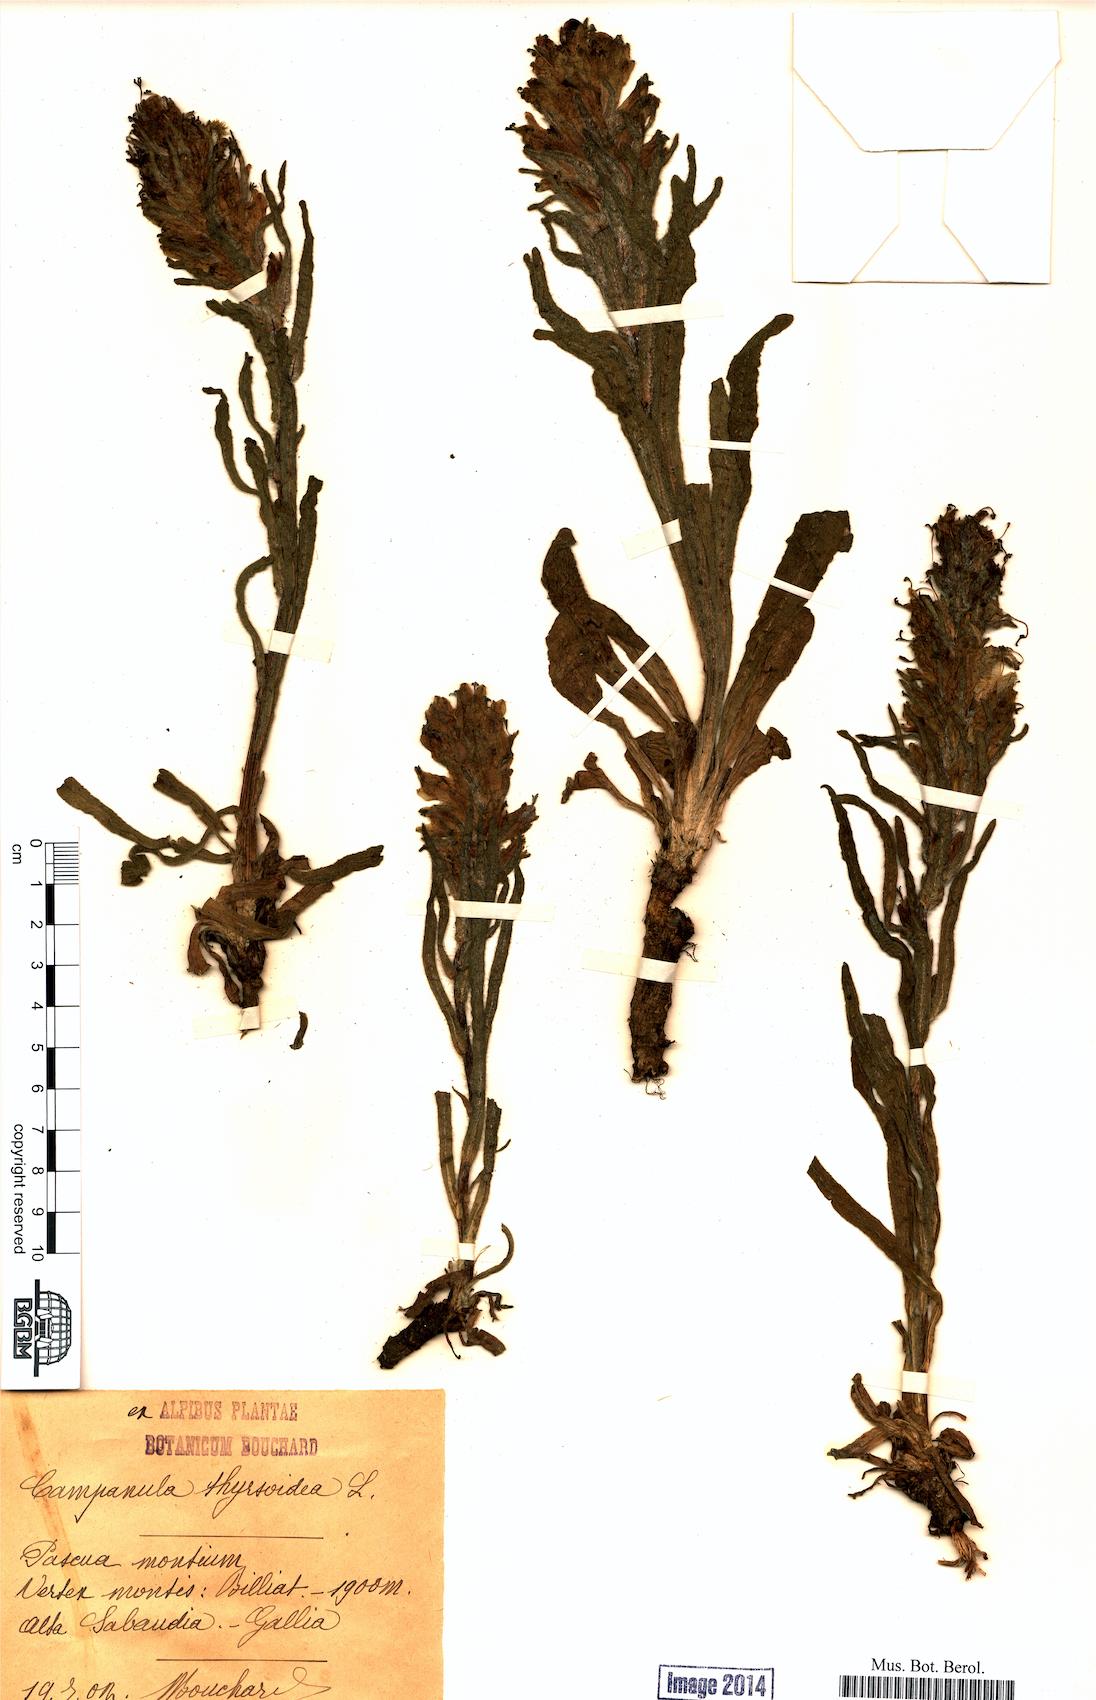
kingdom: Plantae
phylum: Tracheophyta
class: Magnoliopsida
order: Asterales
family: Campanulaceae
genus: Campanula
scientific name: Campanula thyrsoides
